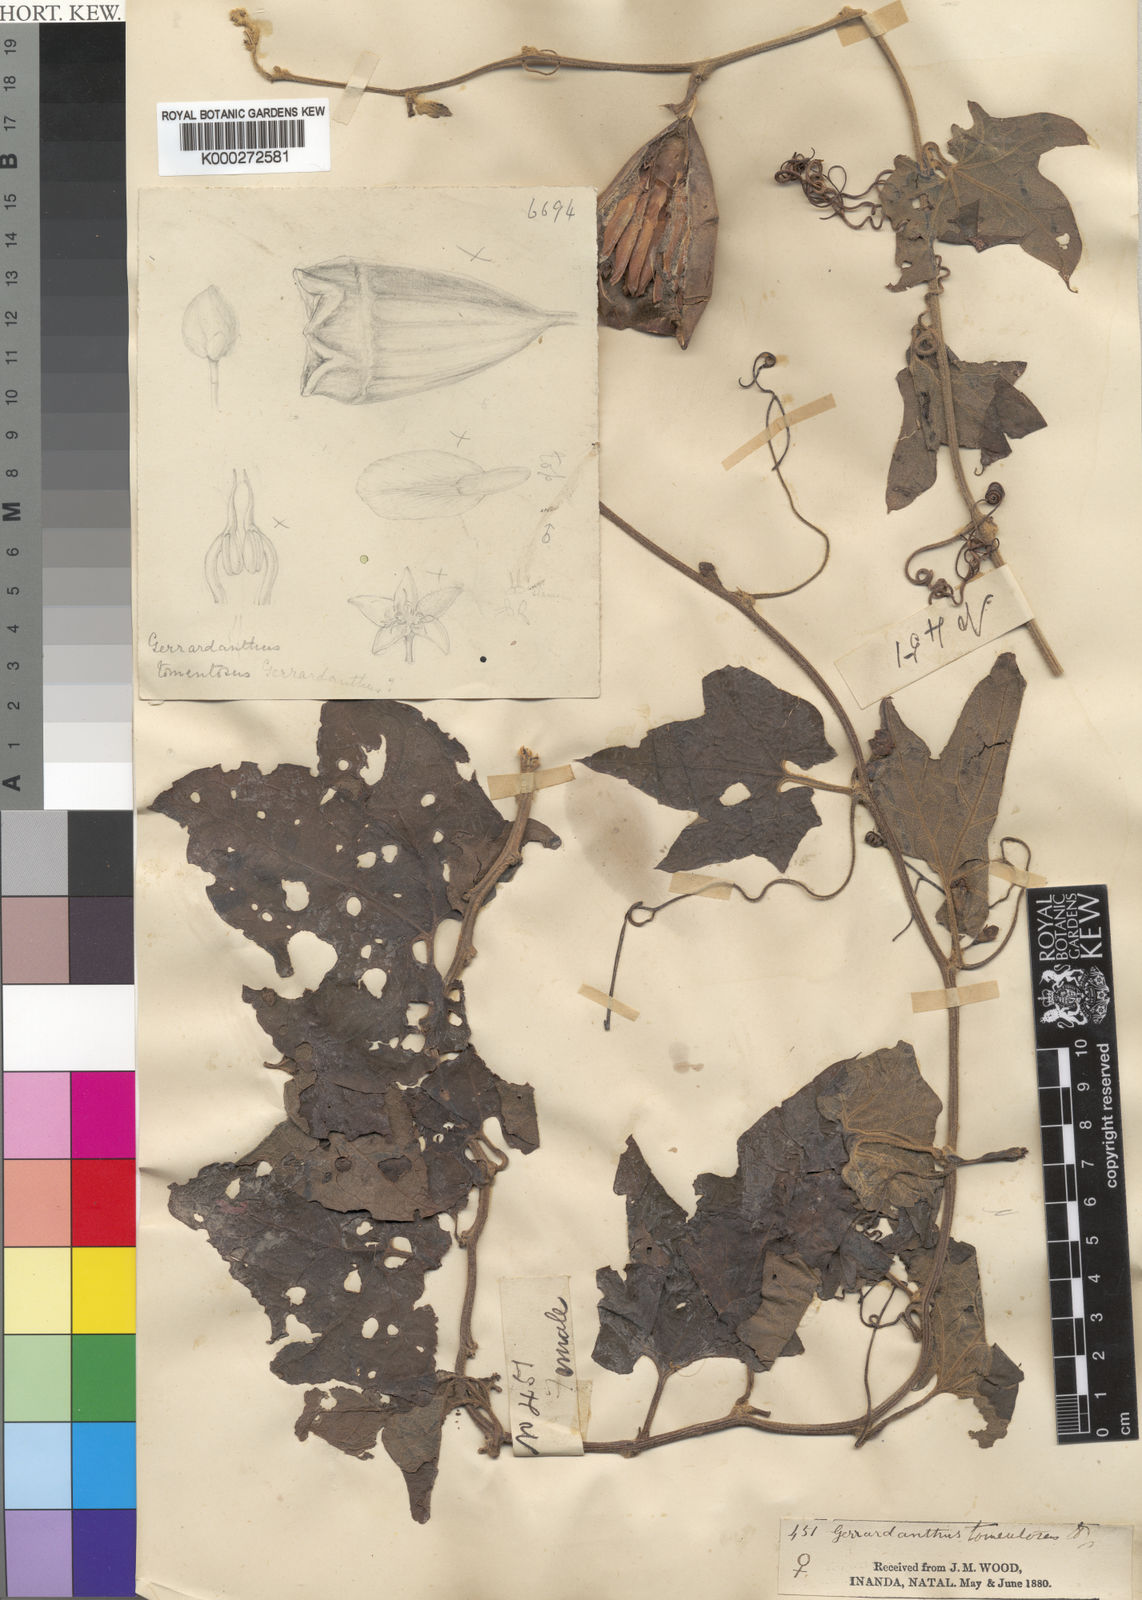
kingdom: Plantae
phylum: Tracheophyta
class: Magnoliopsida
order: Cucurbitales
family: Cucurbitaceae
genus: Gerrardanthus
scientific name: Gerrardanthus tomentosus
